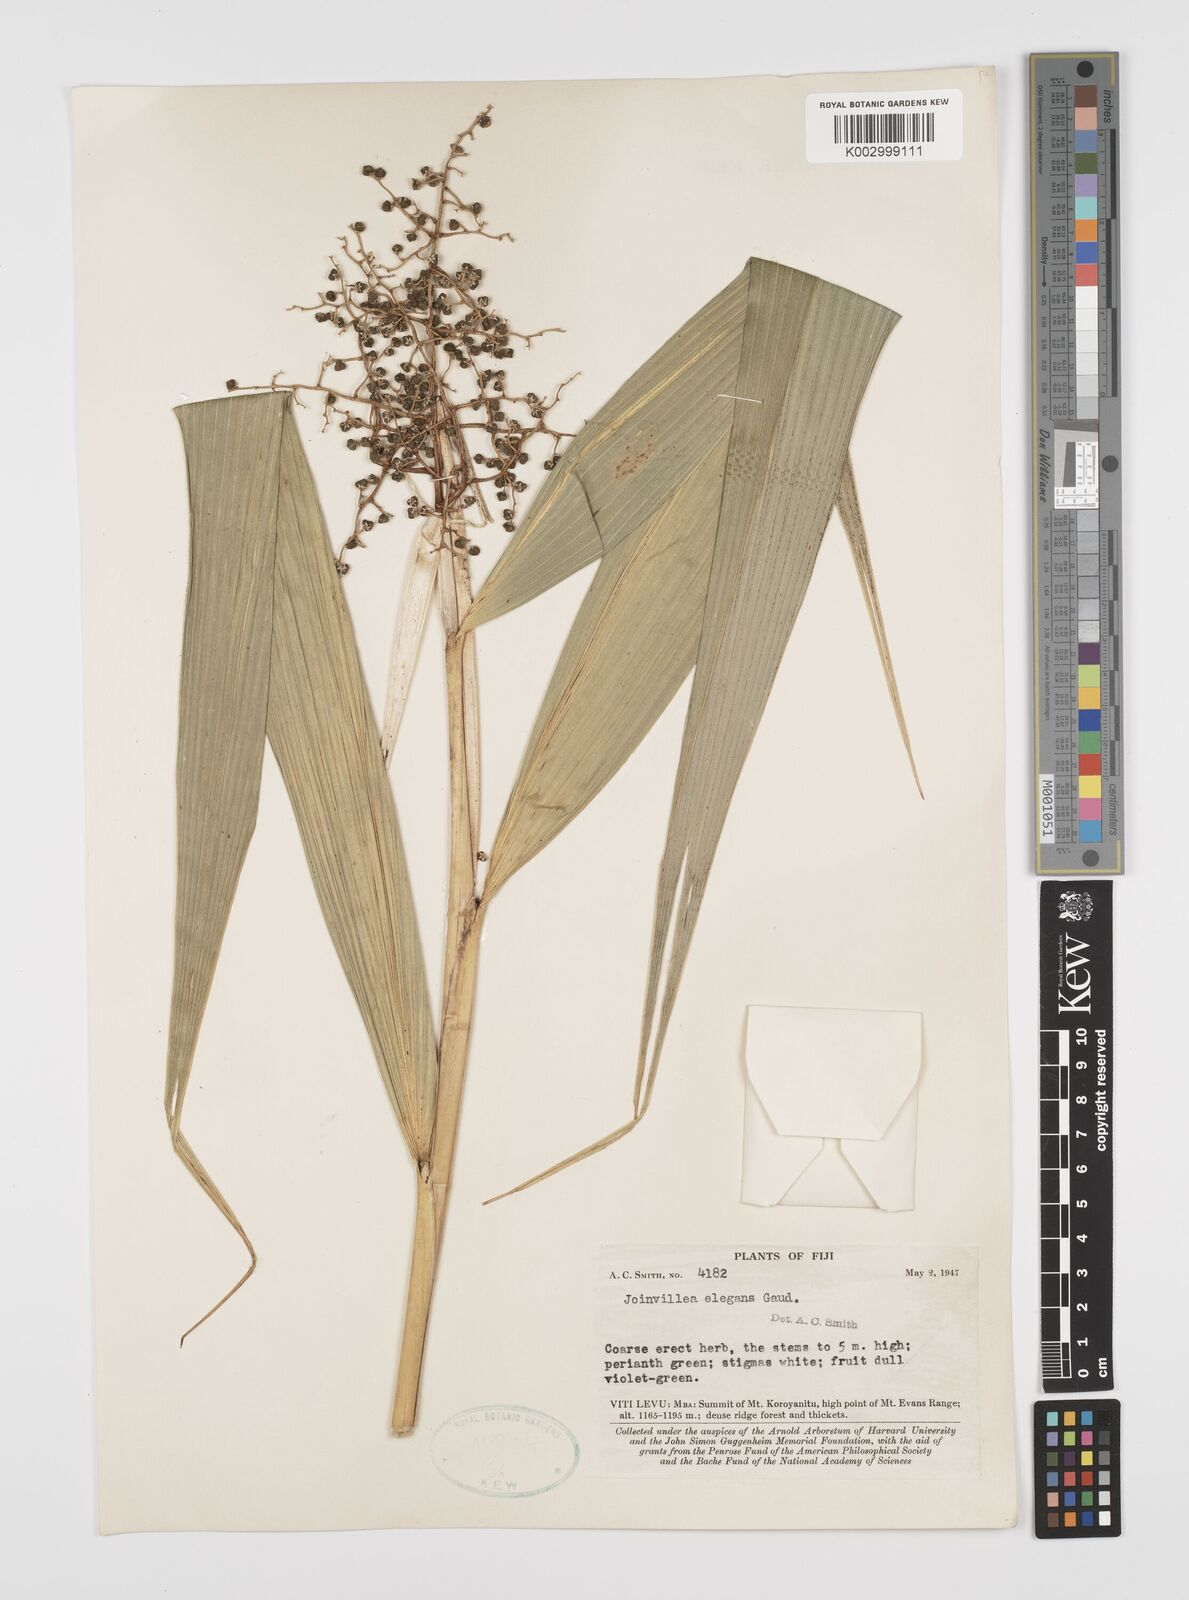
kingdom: Plantae
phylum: Tracheophyta
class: Liliopsida
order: Poales
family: Joinvilleaceae
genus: Joinvillea
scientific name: Joinvillea plicata
